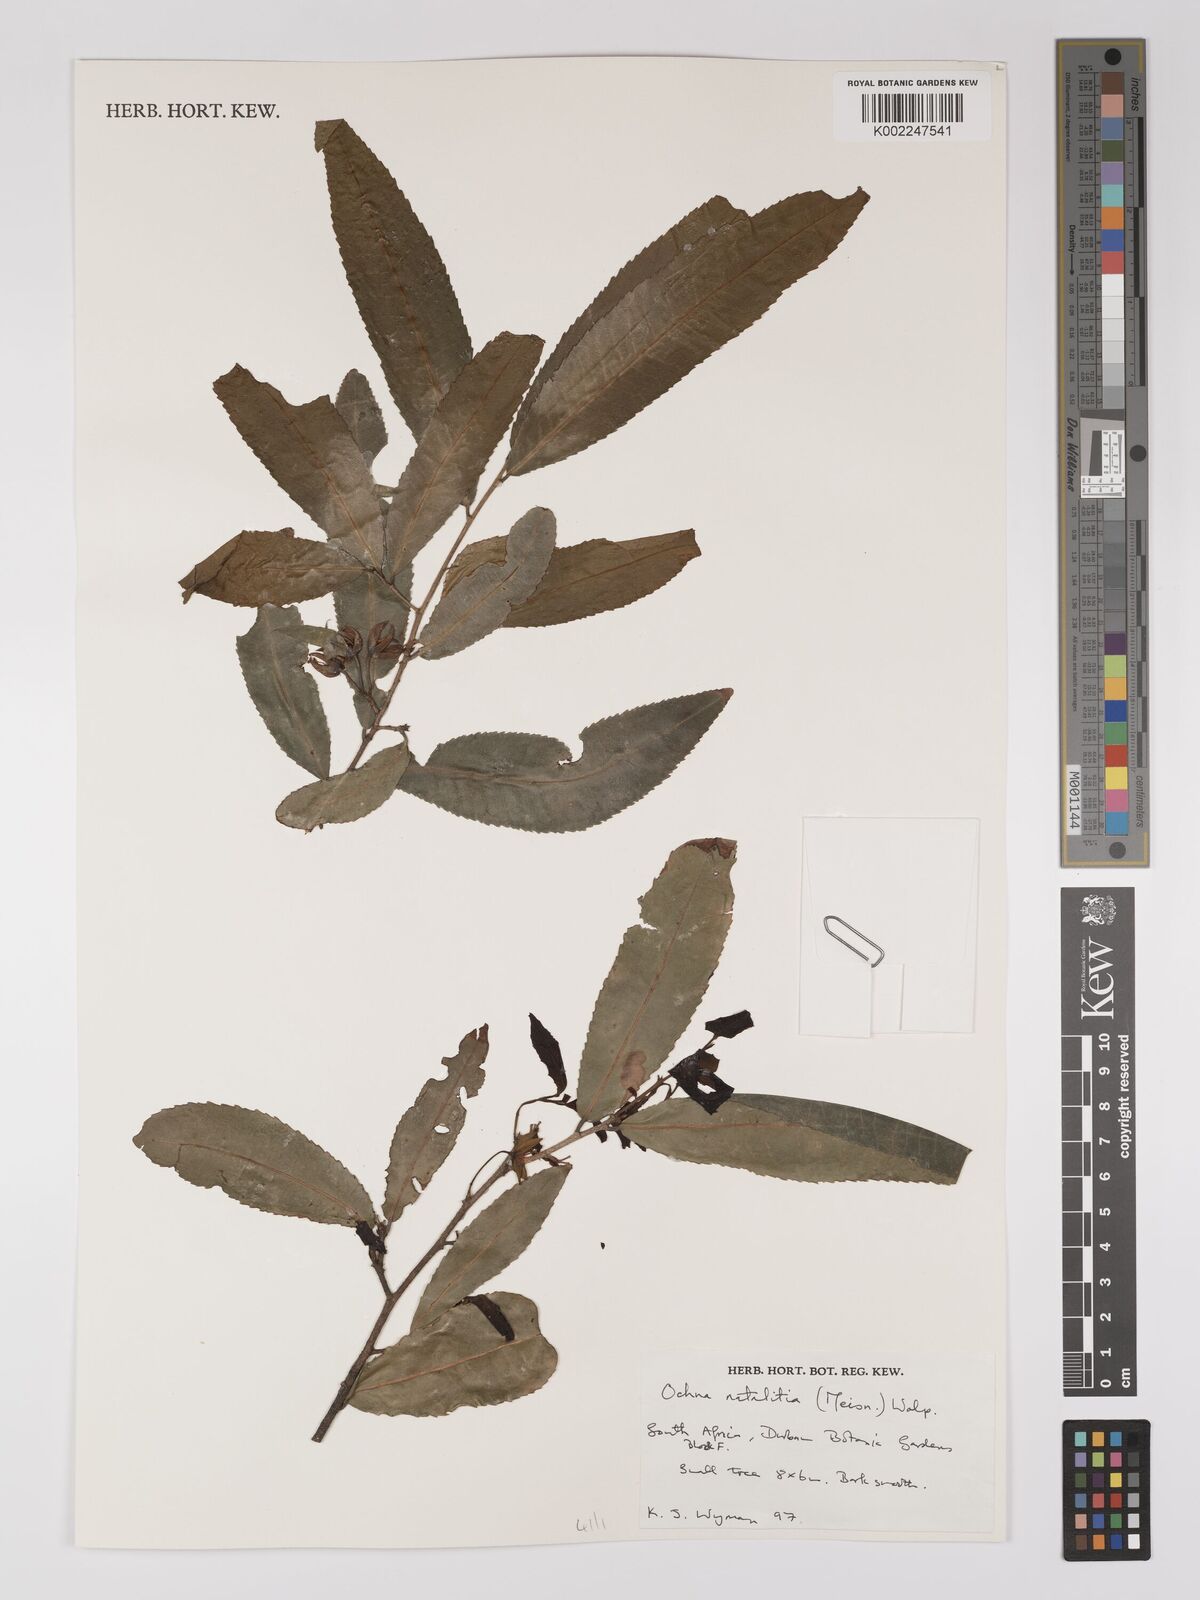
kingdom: Plantae
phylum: Tracheophyta
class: Magnoliopsida
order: Malpighiales
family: Ochnaceae
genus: Ochna
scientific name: Ochna natalitia
